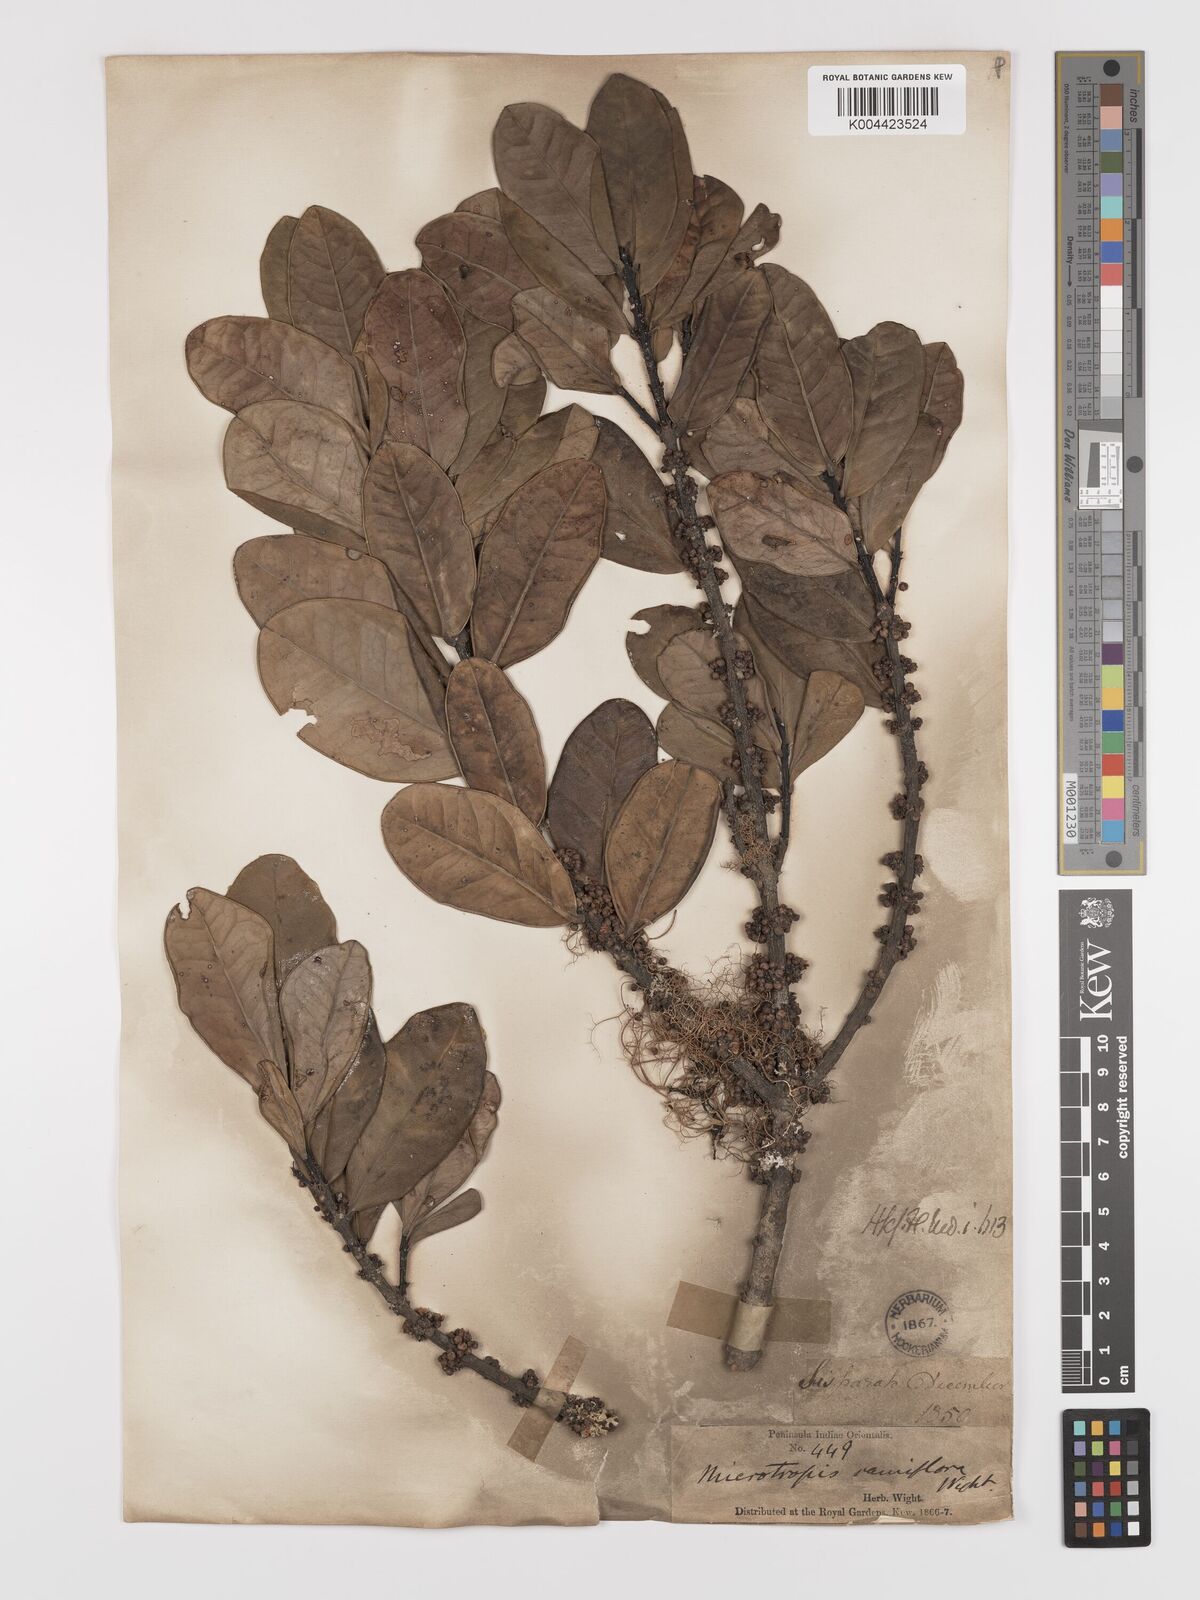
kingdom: Plantae
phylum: Tracheophyta
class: Magnoliopsida
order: Celastrales
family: Celastraceae
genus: Microtropis
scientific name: Microtropis ramiflora
